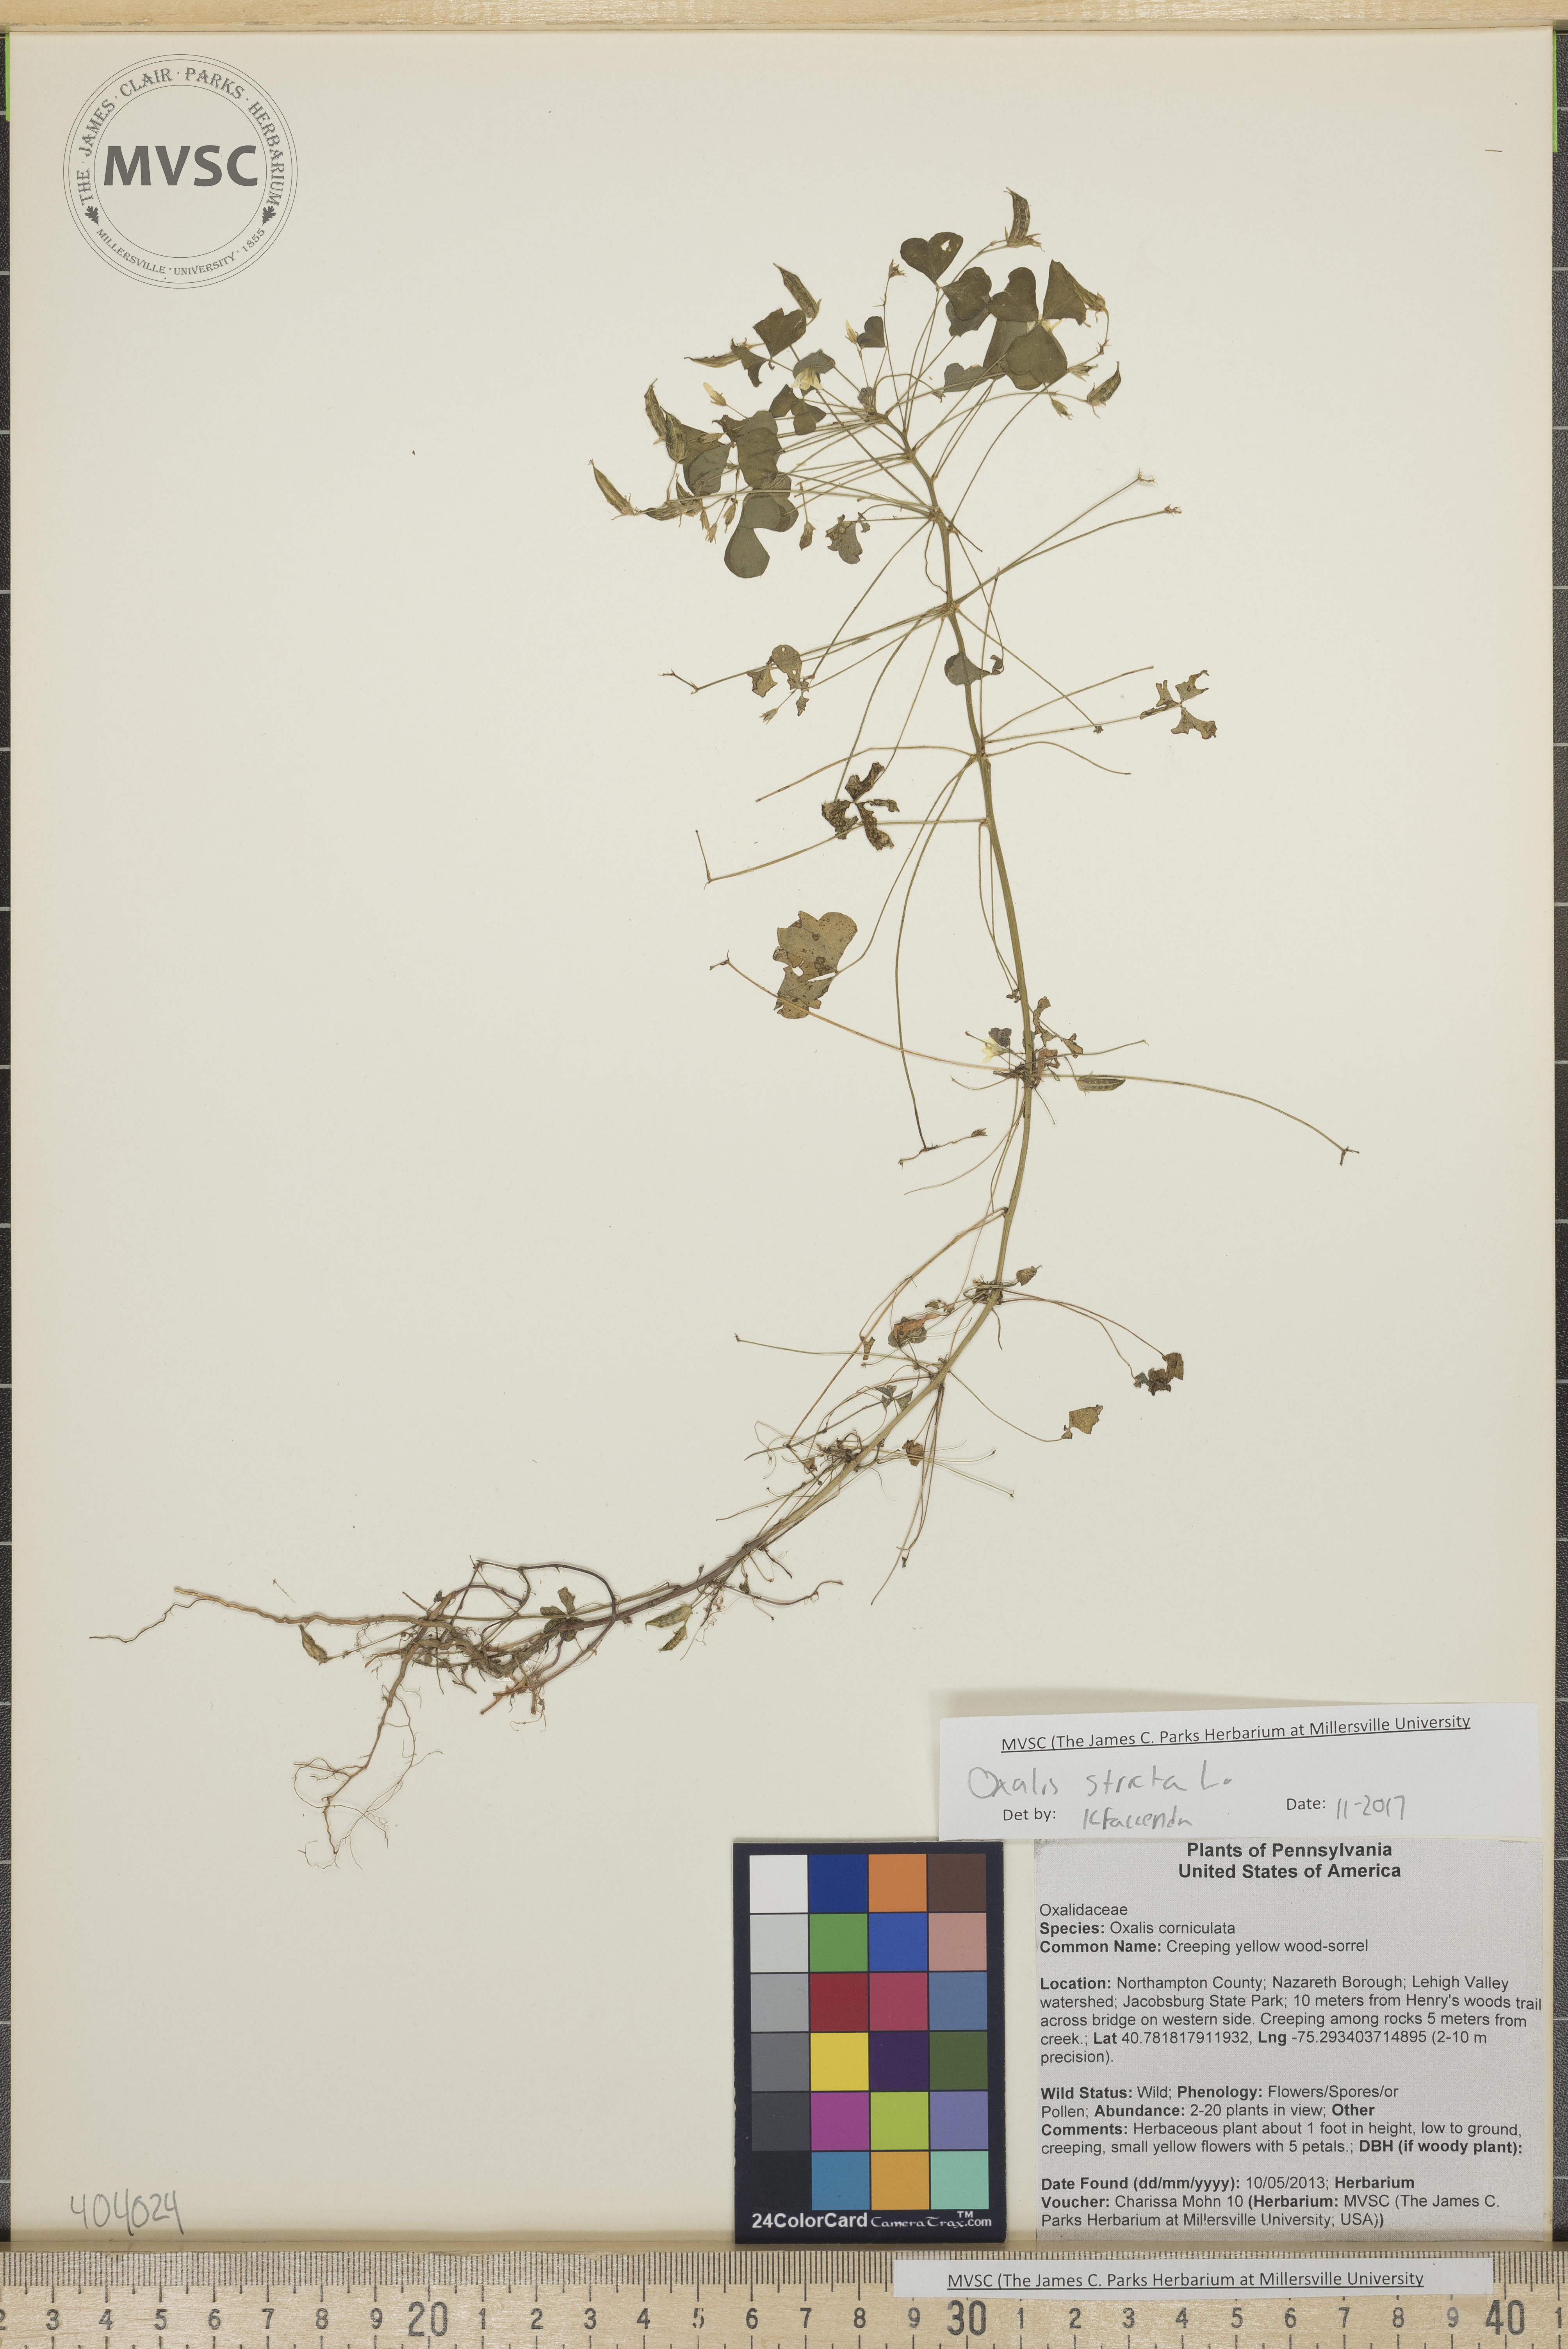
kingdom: Plantae
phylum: Tracheophyta
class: Magnoliopsida
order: Oxalidales
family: Oxalidaceae
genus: Oxalis
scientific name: Oxalis stricta
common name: Yellow wood-sorrel
